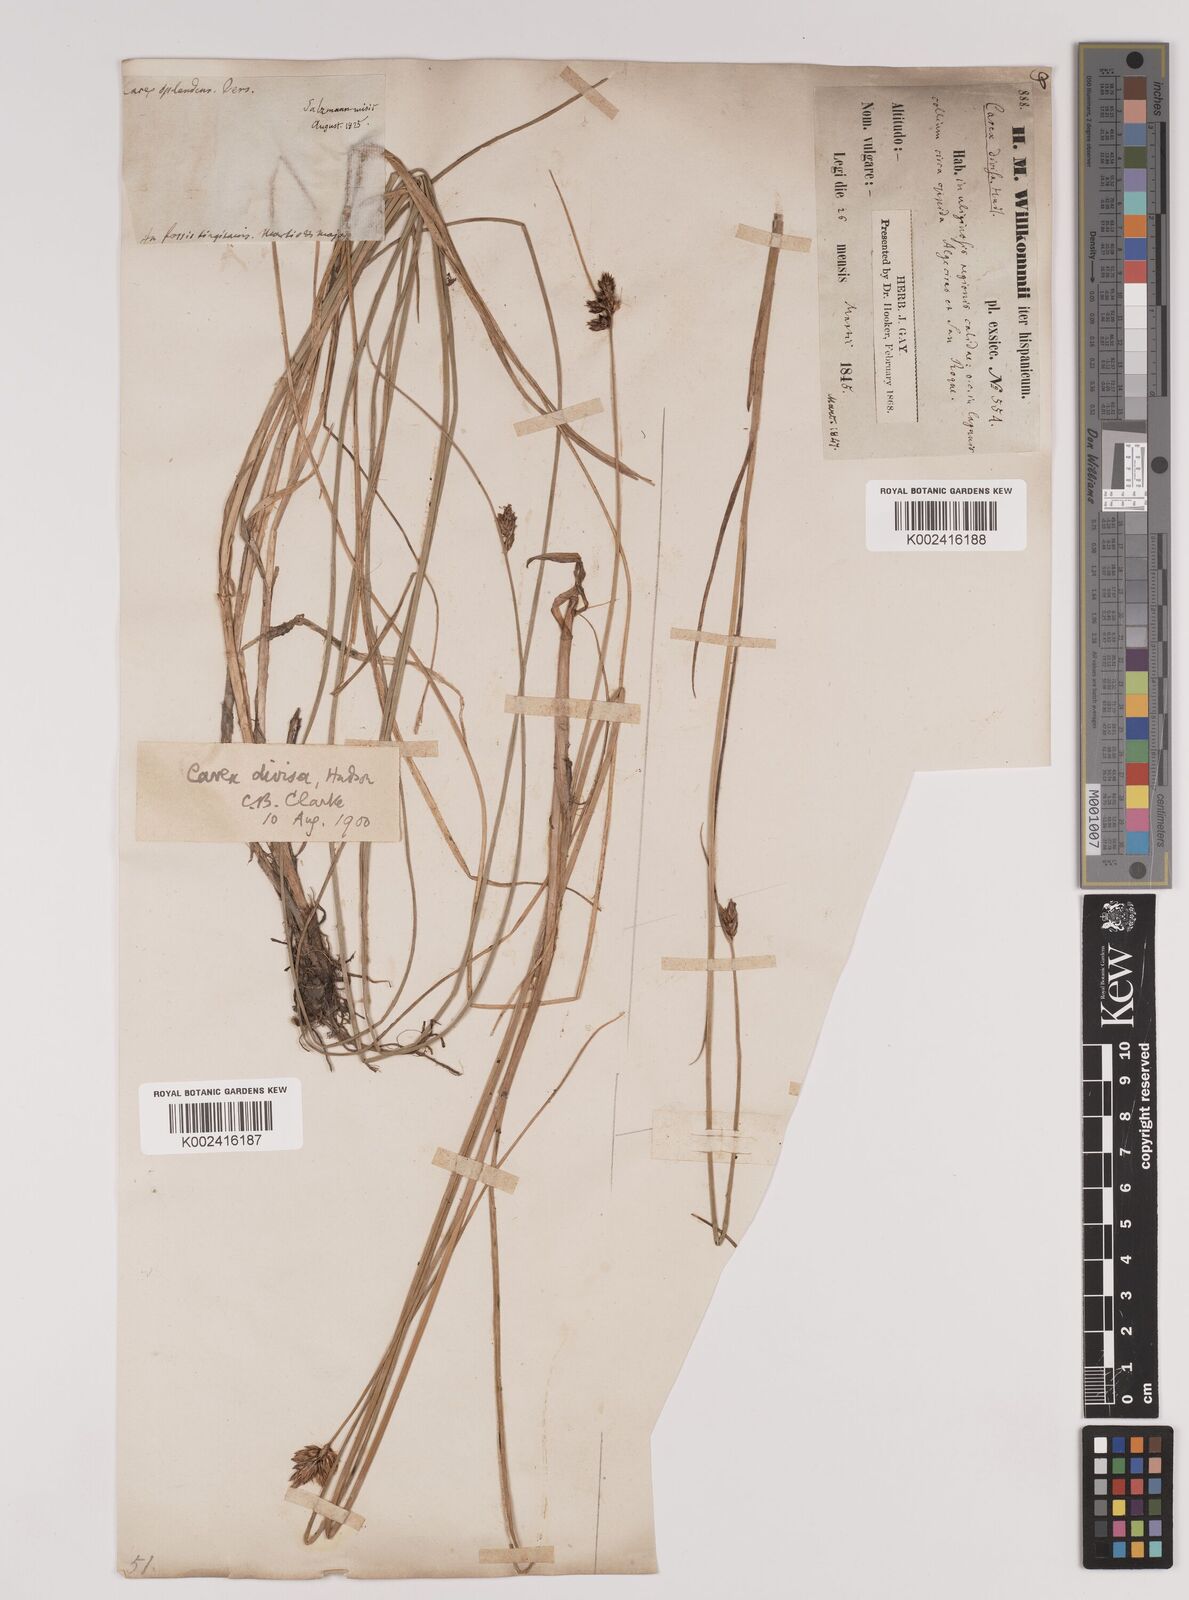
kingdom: Plantae
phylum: Tracheophyta
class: Liliopsida
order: Poales
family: Cyperaceae
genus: Carex
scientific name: Carex divisa
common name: Divided sedge
